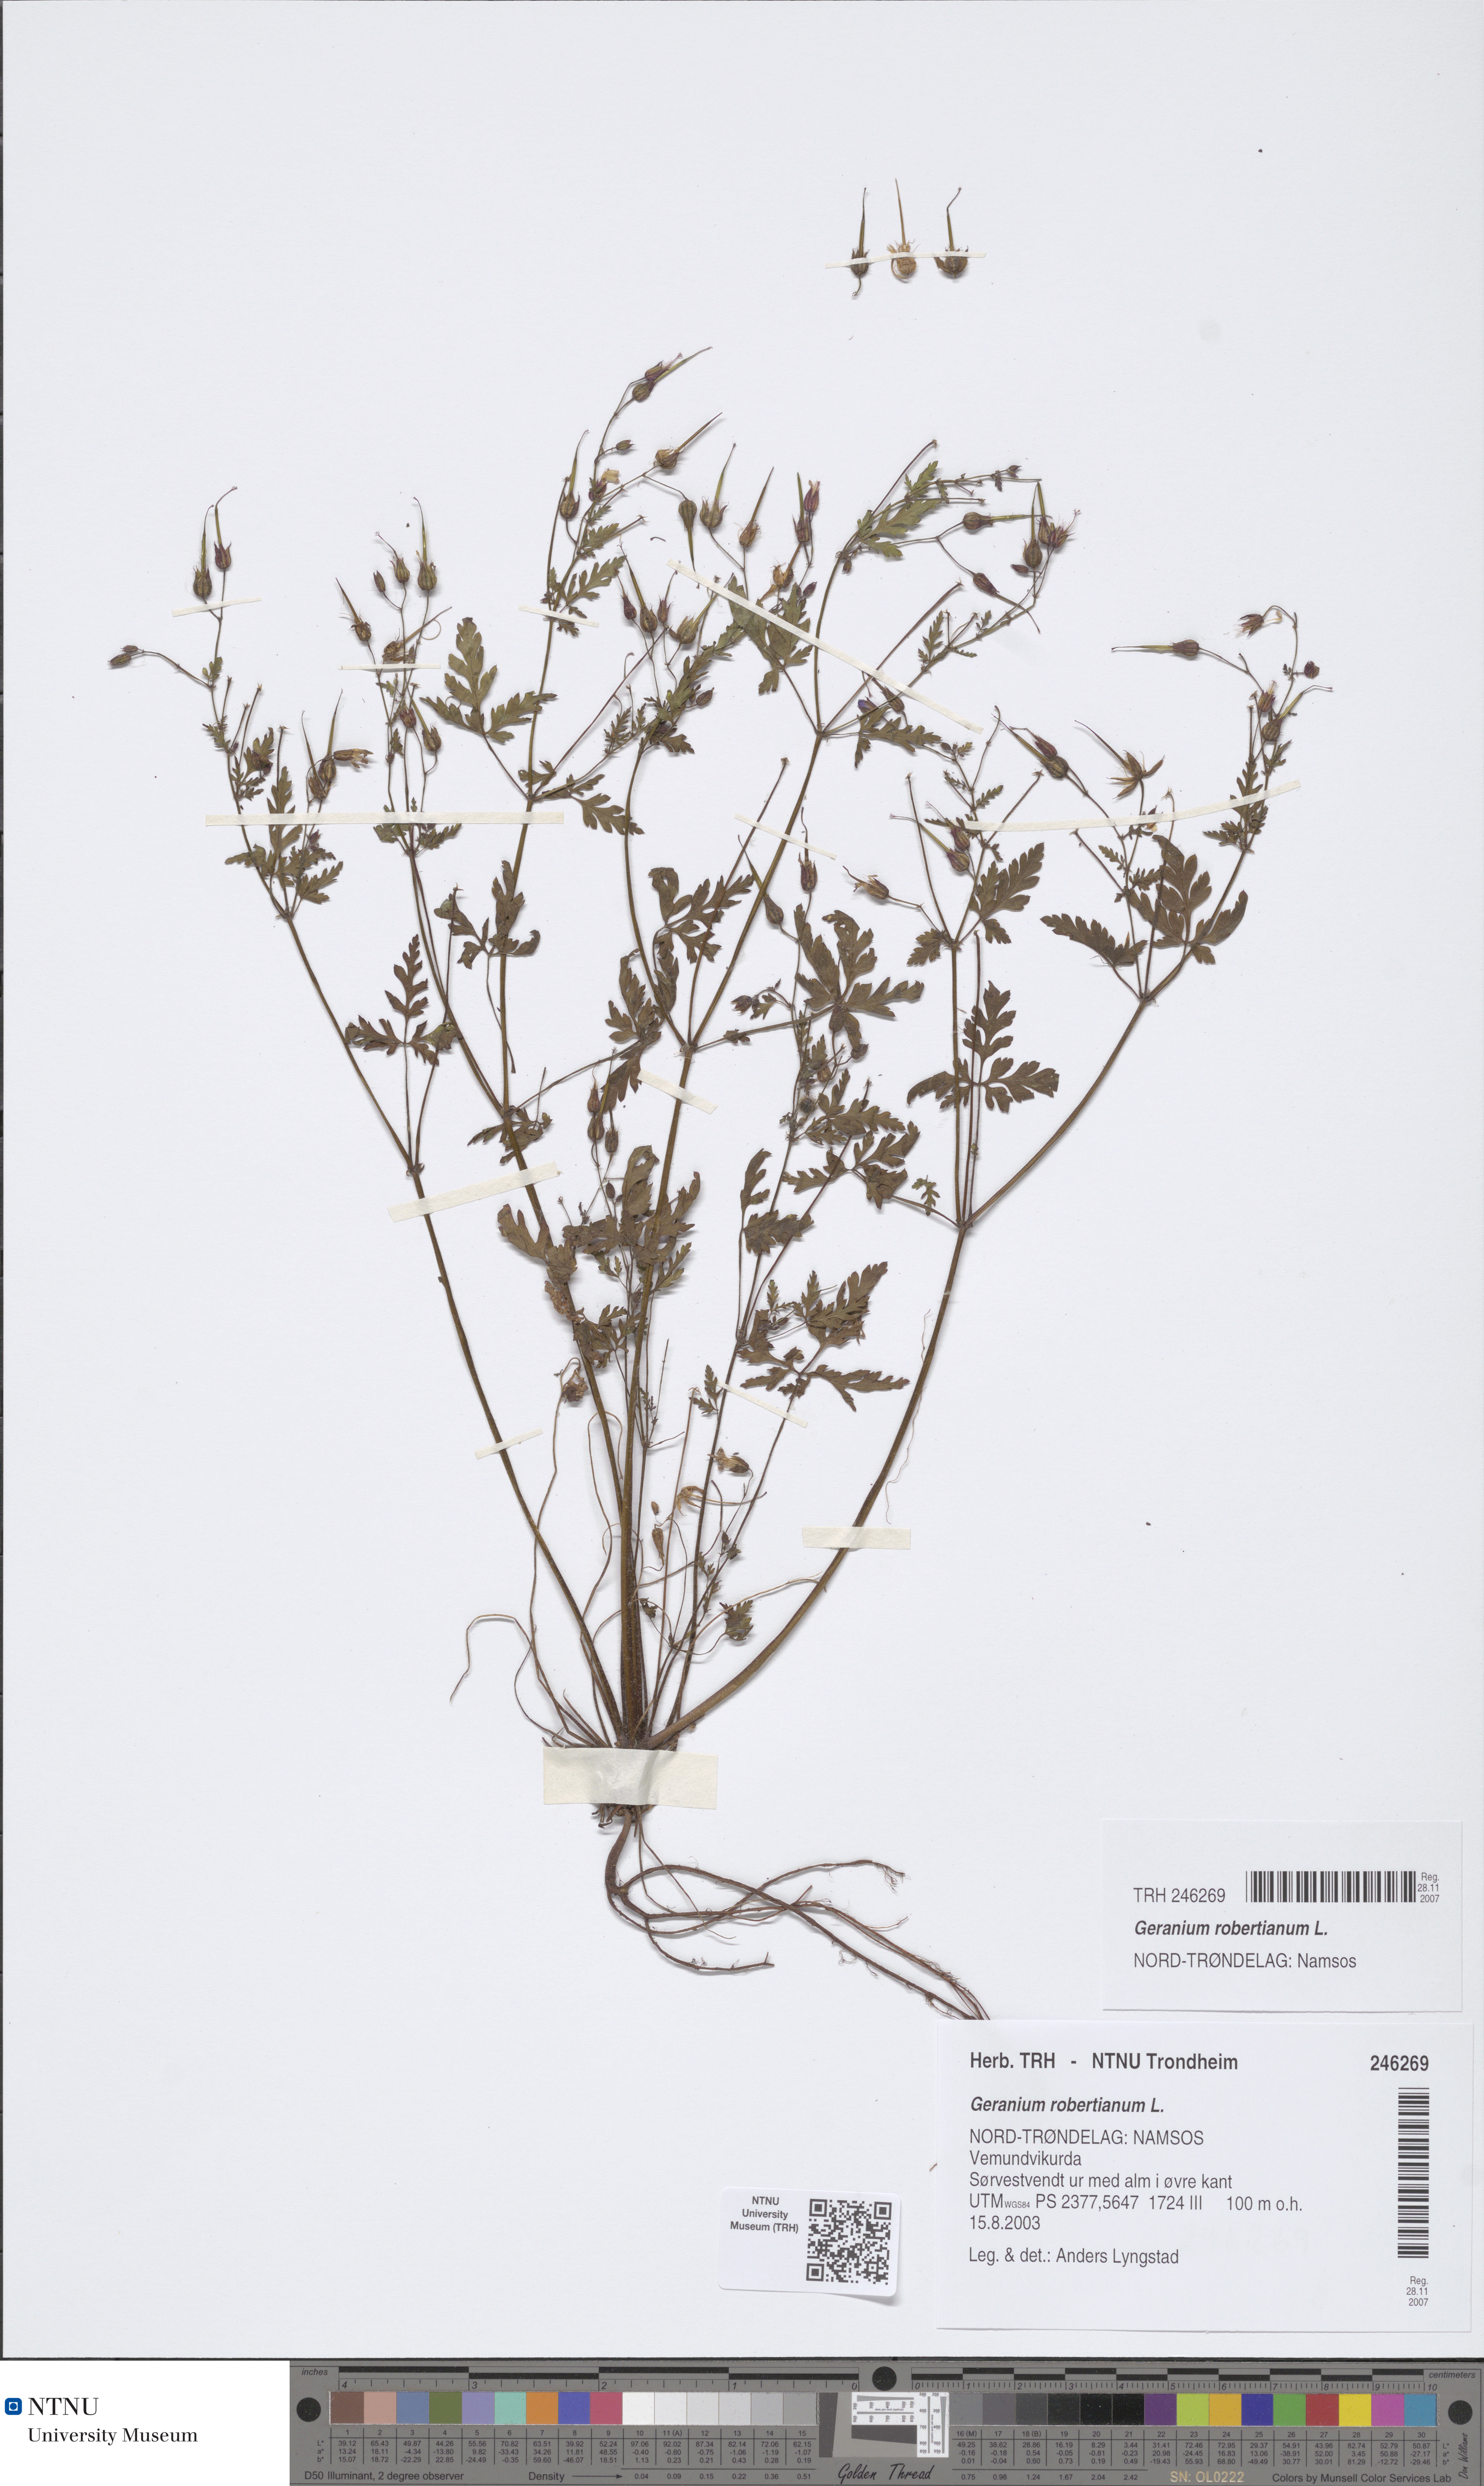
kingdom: Plantae
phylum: Tracheophyta
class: Magnoliopsida
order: Geraniales
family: Geraniaceae
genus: Geranium
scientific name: Geranium robertianum
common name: Herb-robert
